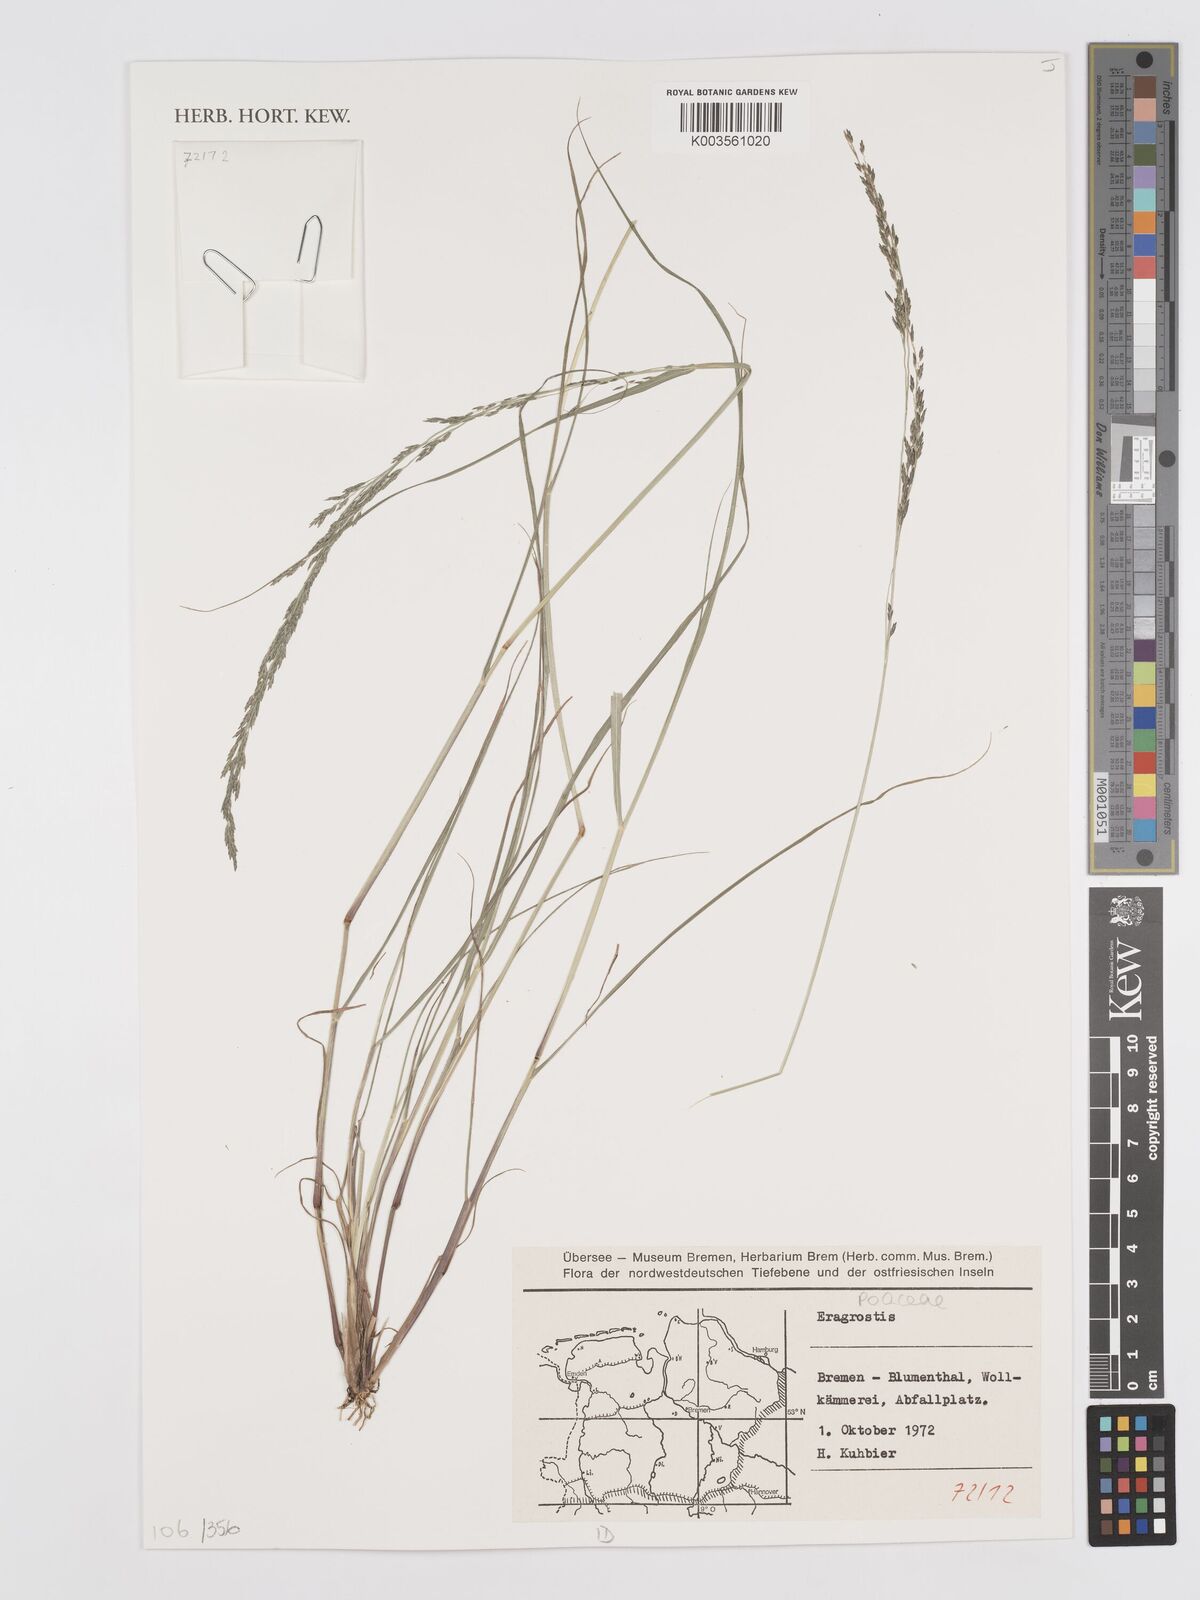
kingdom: Plantae
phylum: Tracheophyta
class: Liliopsida
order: Poales
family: Poaceae
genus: Eragrostis
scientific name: Eragrostis
